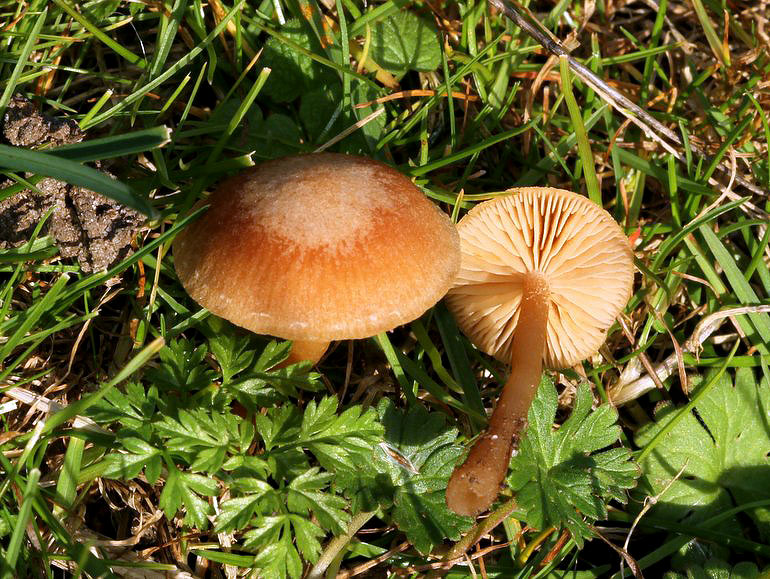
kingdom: Fungi
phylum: Basidiomycota
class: Agaricomycetes
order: Agaricales
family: Tubariaceae
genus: Tubaria
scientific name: Tubaria furfuracea
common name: kliddet fnughat
